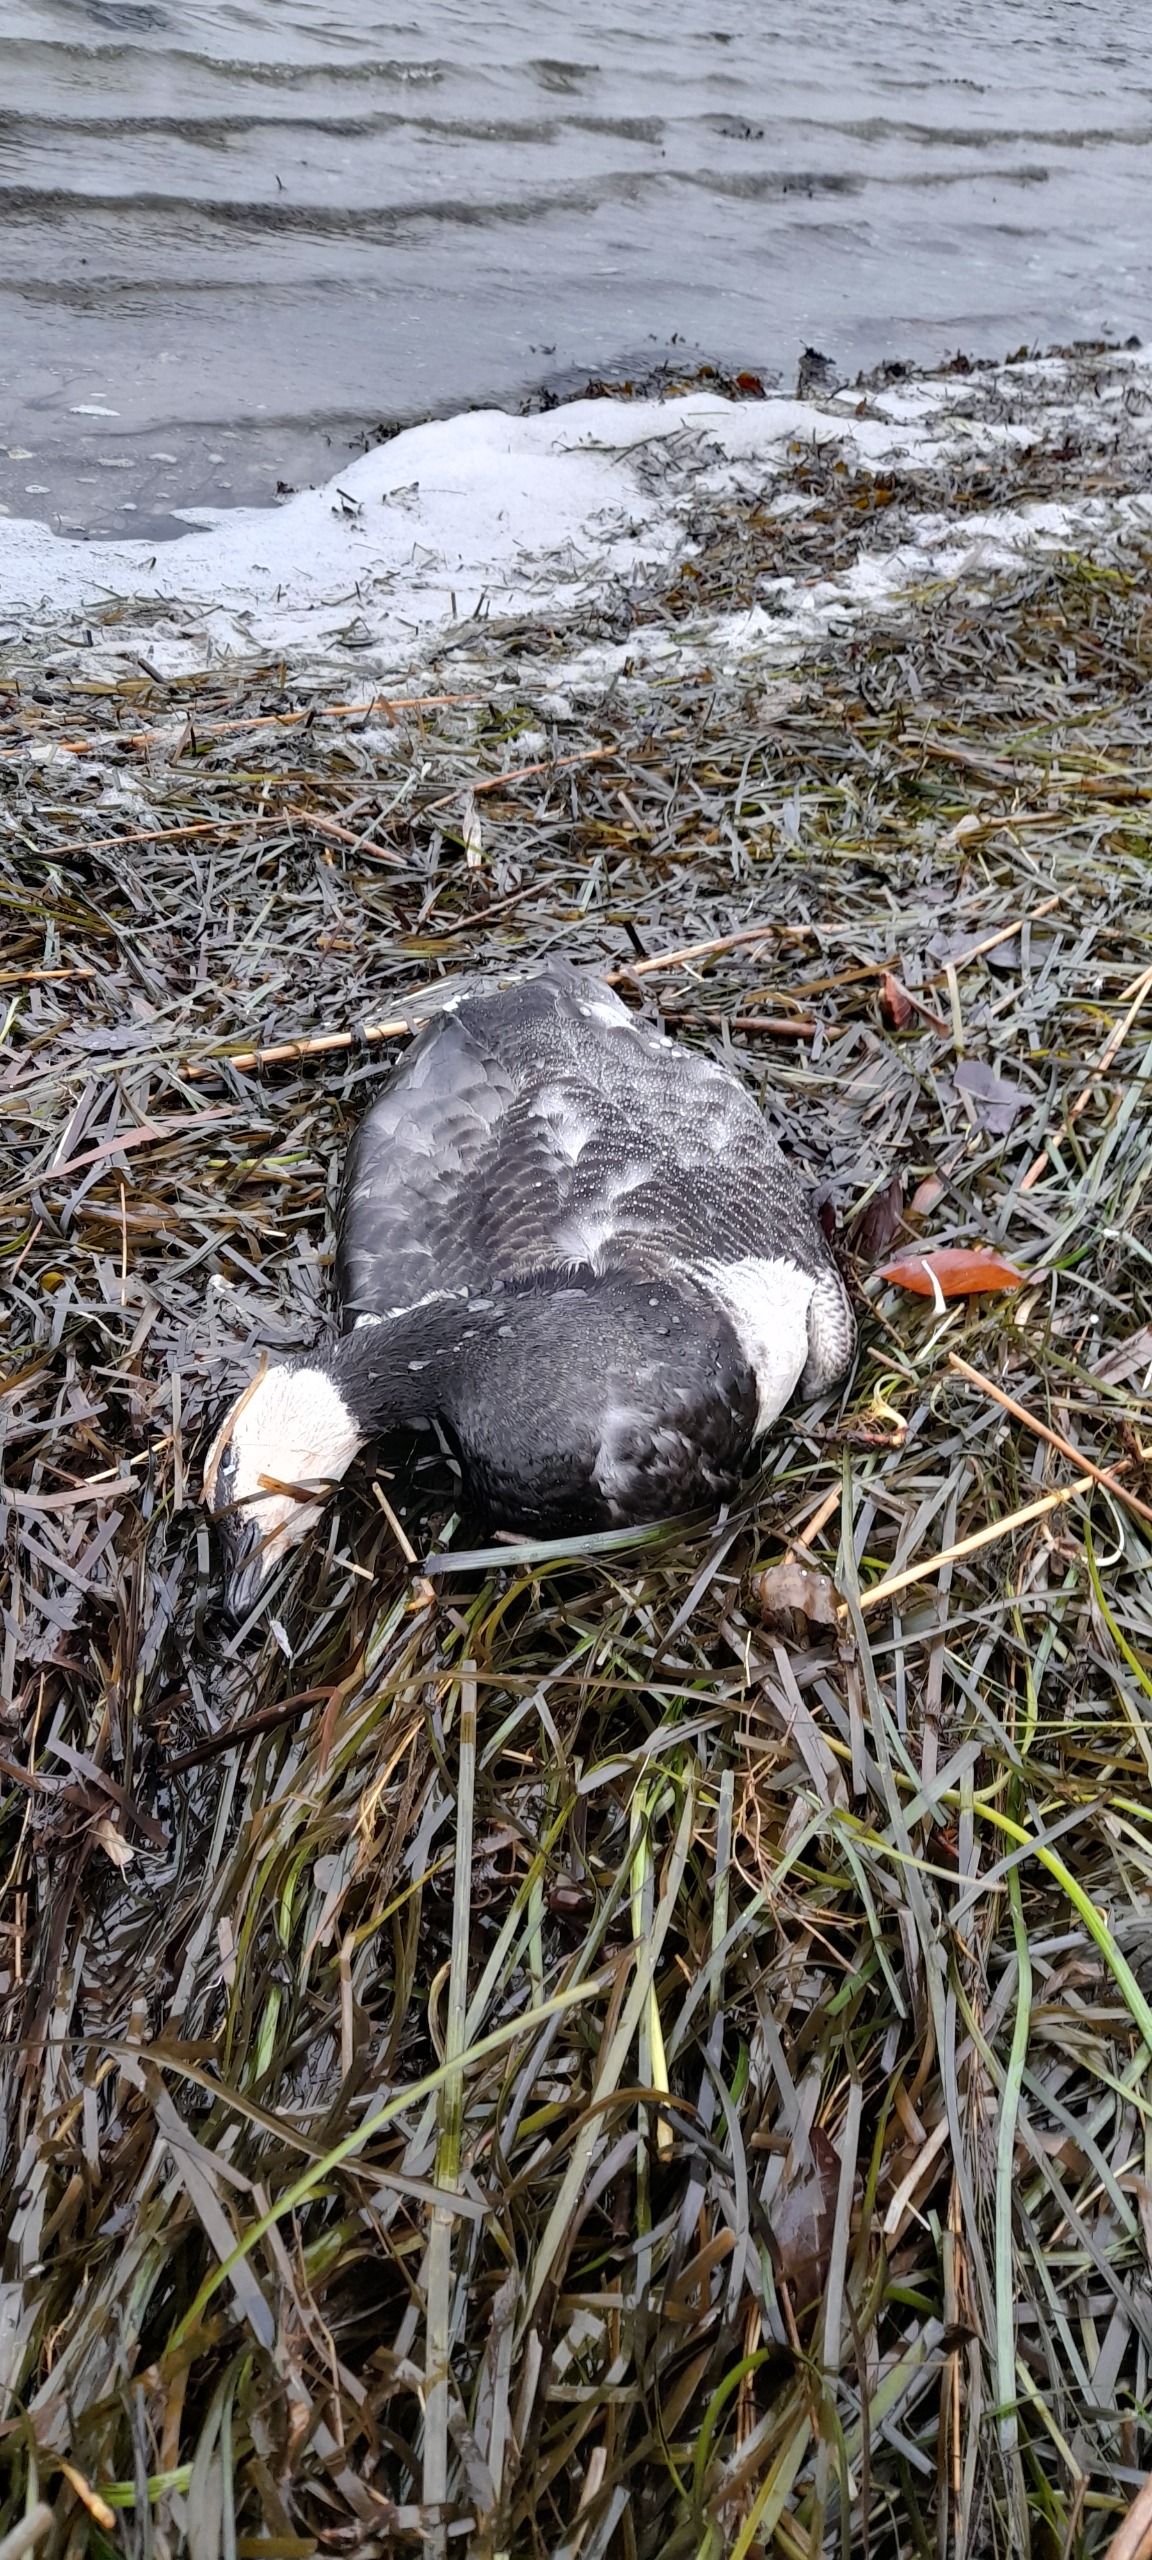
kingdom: Animalia
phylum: Chordata
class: Aves
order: Anseriformes
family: Anatidae
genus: Branta
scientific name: Branta leucopsis
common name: Bramgås
